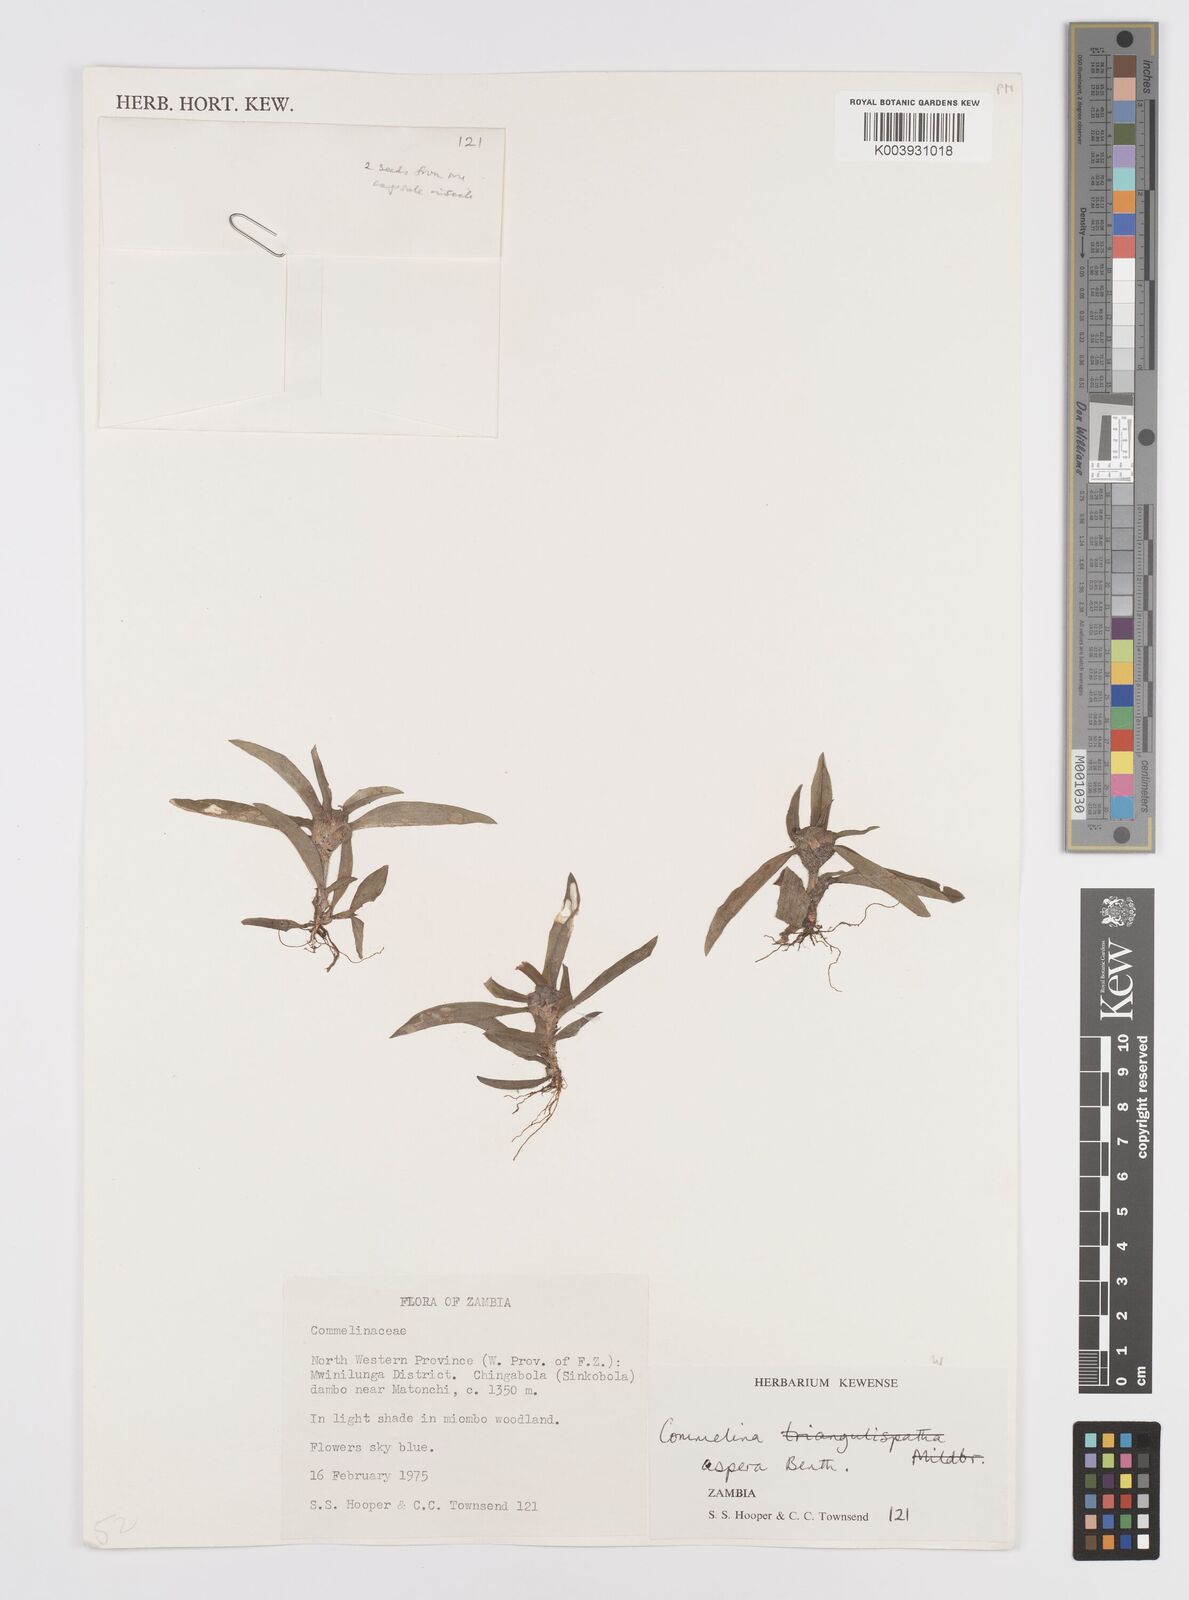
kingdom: Plantae
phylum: Tracheophyta
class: Liliopsida
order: Commelinales
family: Commelinaceae
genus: Commelina
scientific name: Commelina aspera
